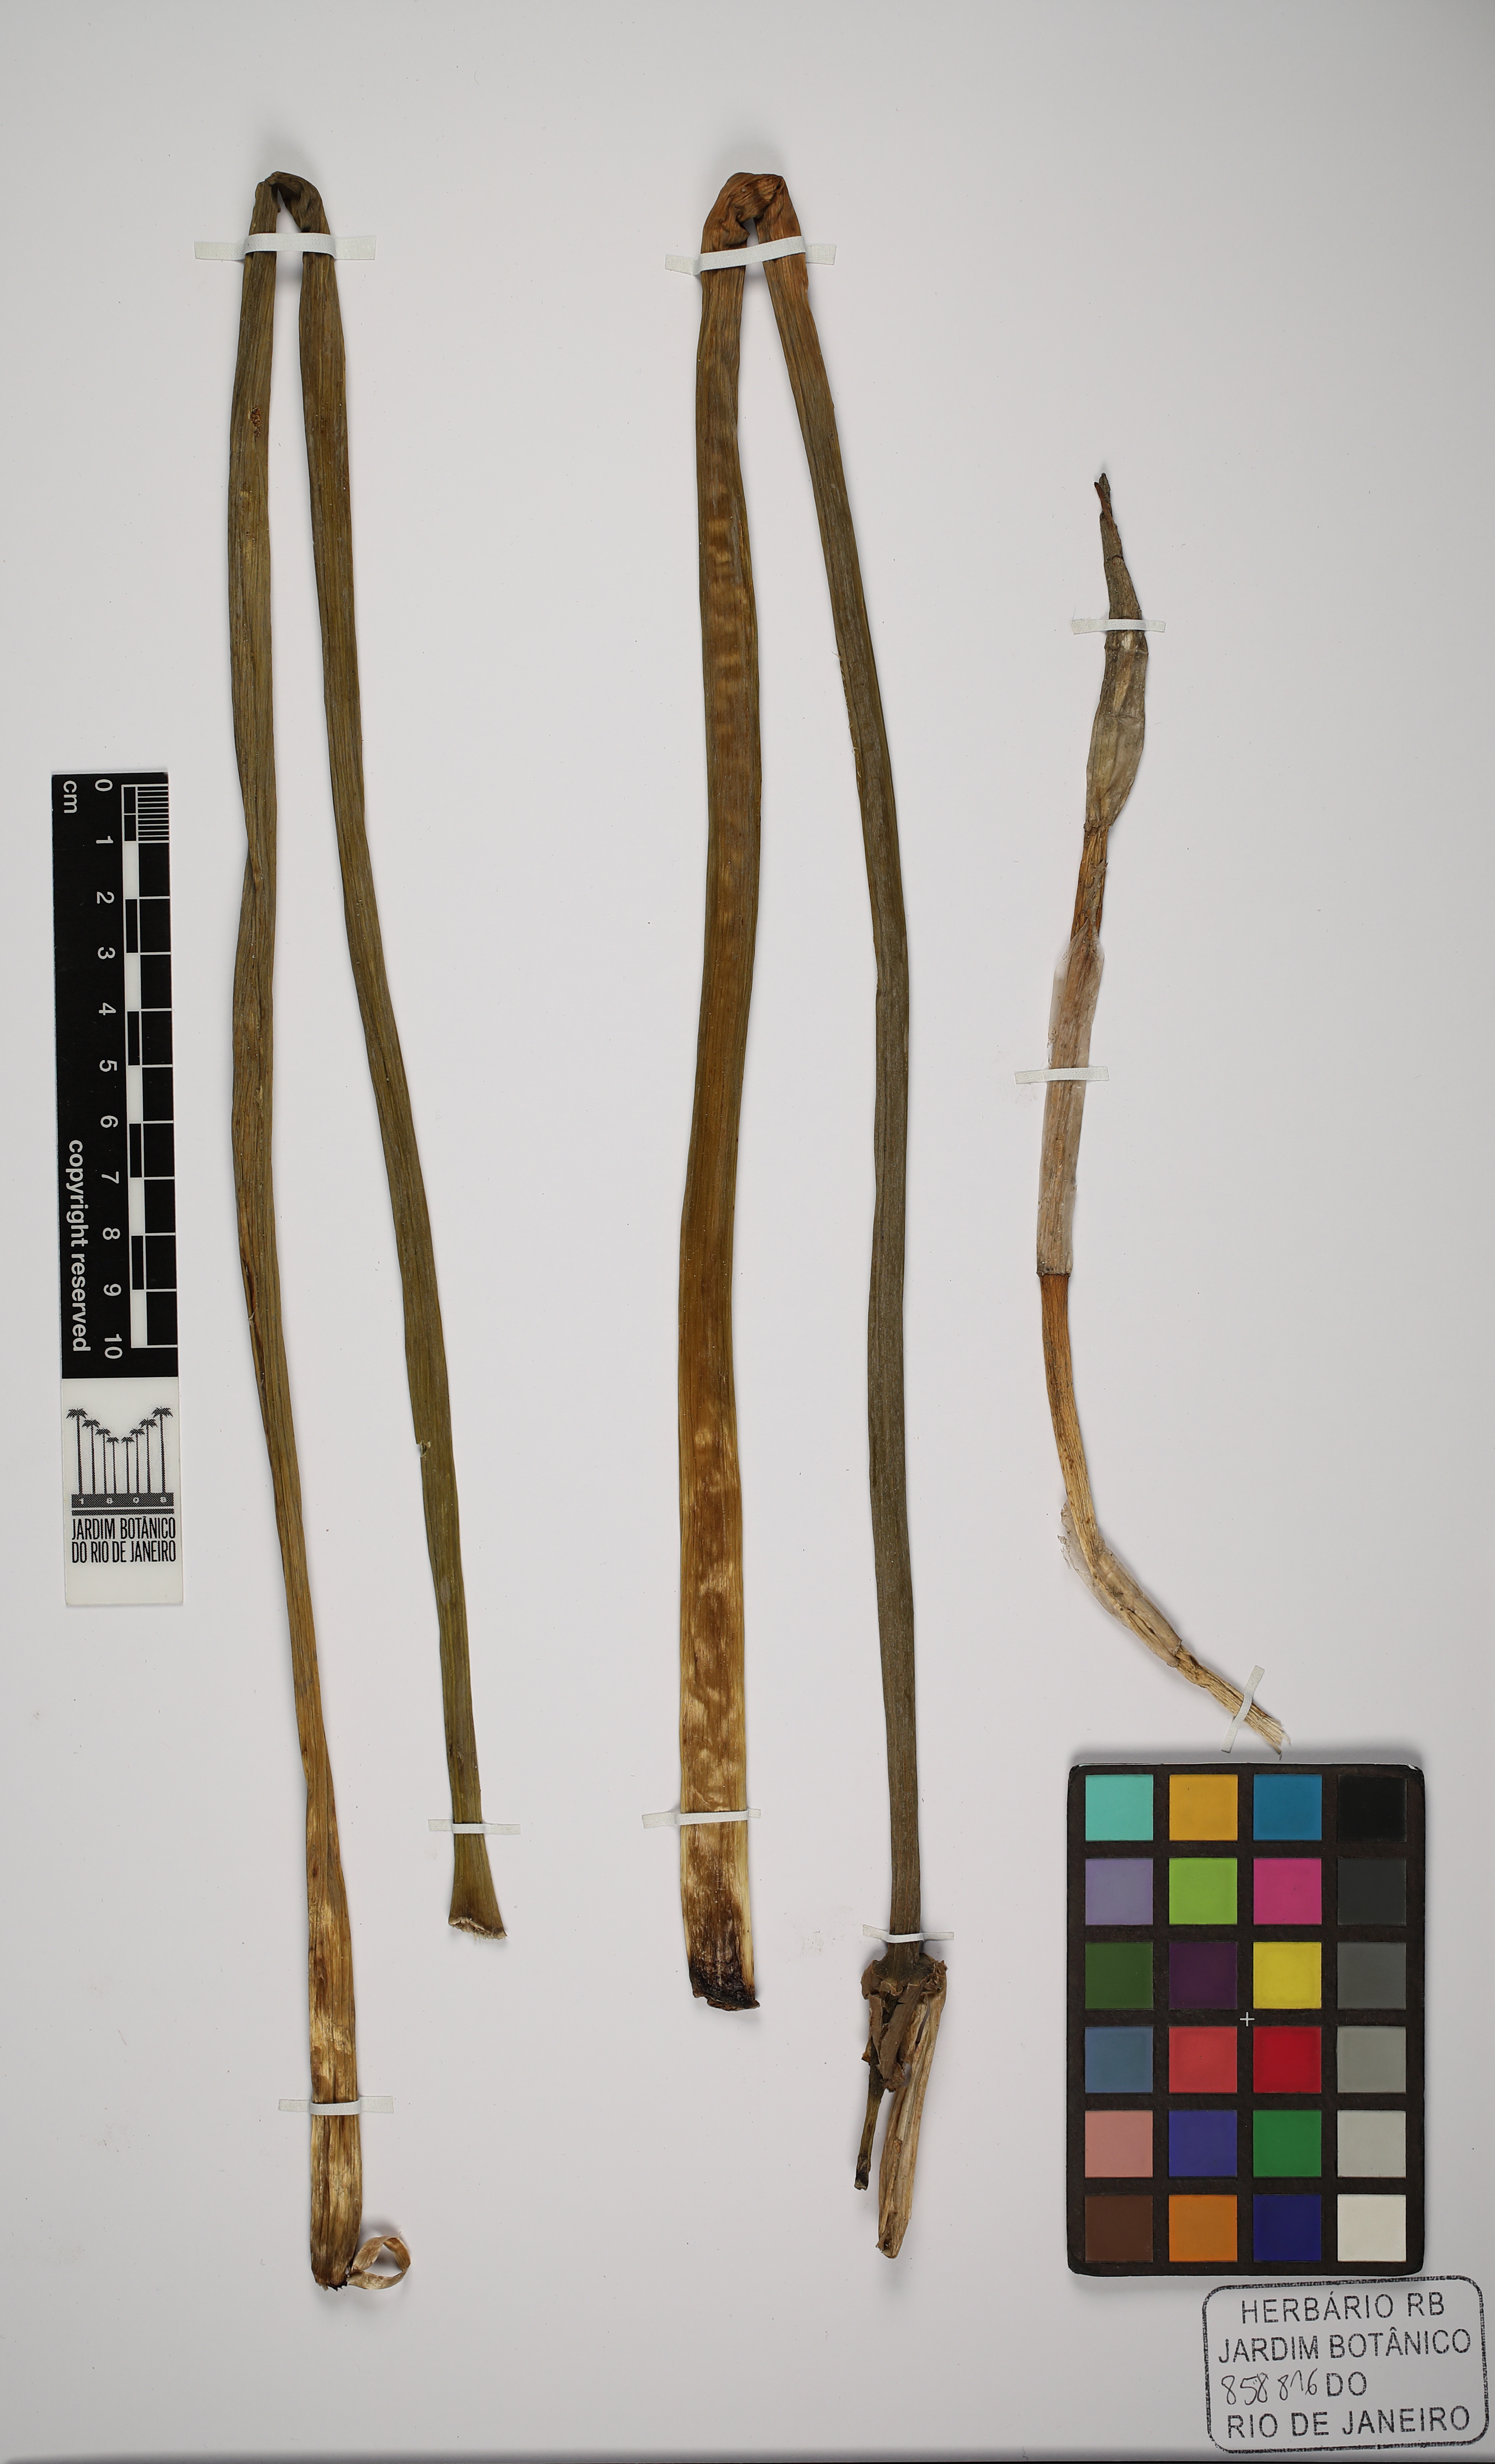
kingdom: Plantae
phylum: Tracheophyta
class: Liliopsida
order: Asparagales
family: Amaryllidaceae
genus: Crinum
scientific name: Crinum americanum
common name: Florida swamp-lily
